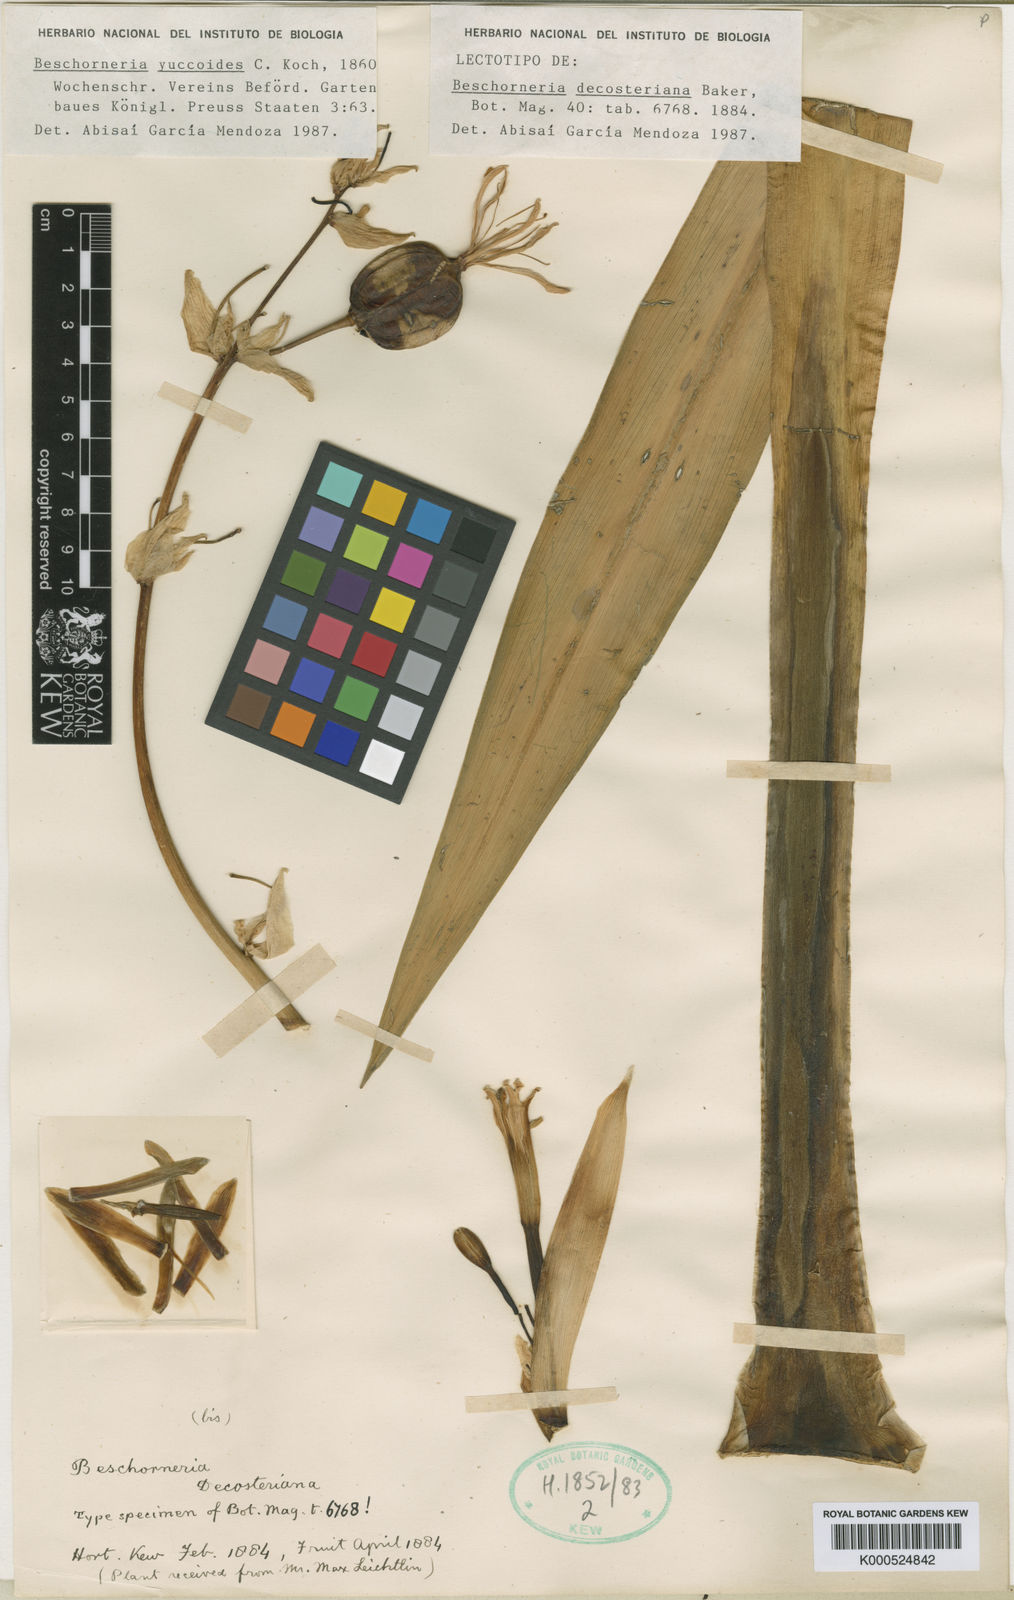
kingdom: Plantae
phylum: Tracheophyta
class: Liliopsida
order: Asparagales
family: Asparagaceae
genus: Beschorneria
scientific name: Beschorneria yuccoides
